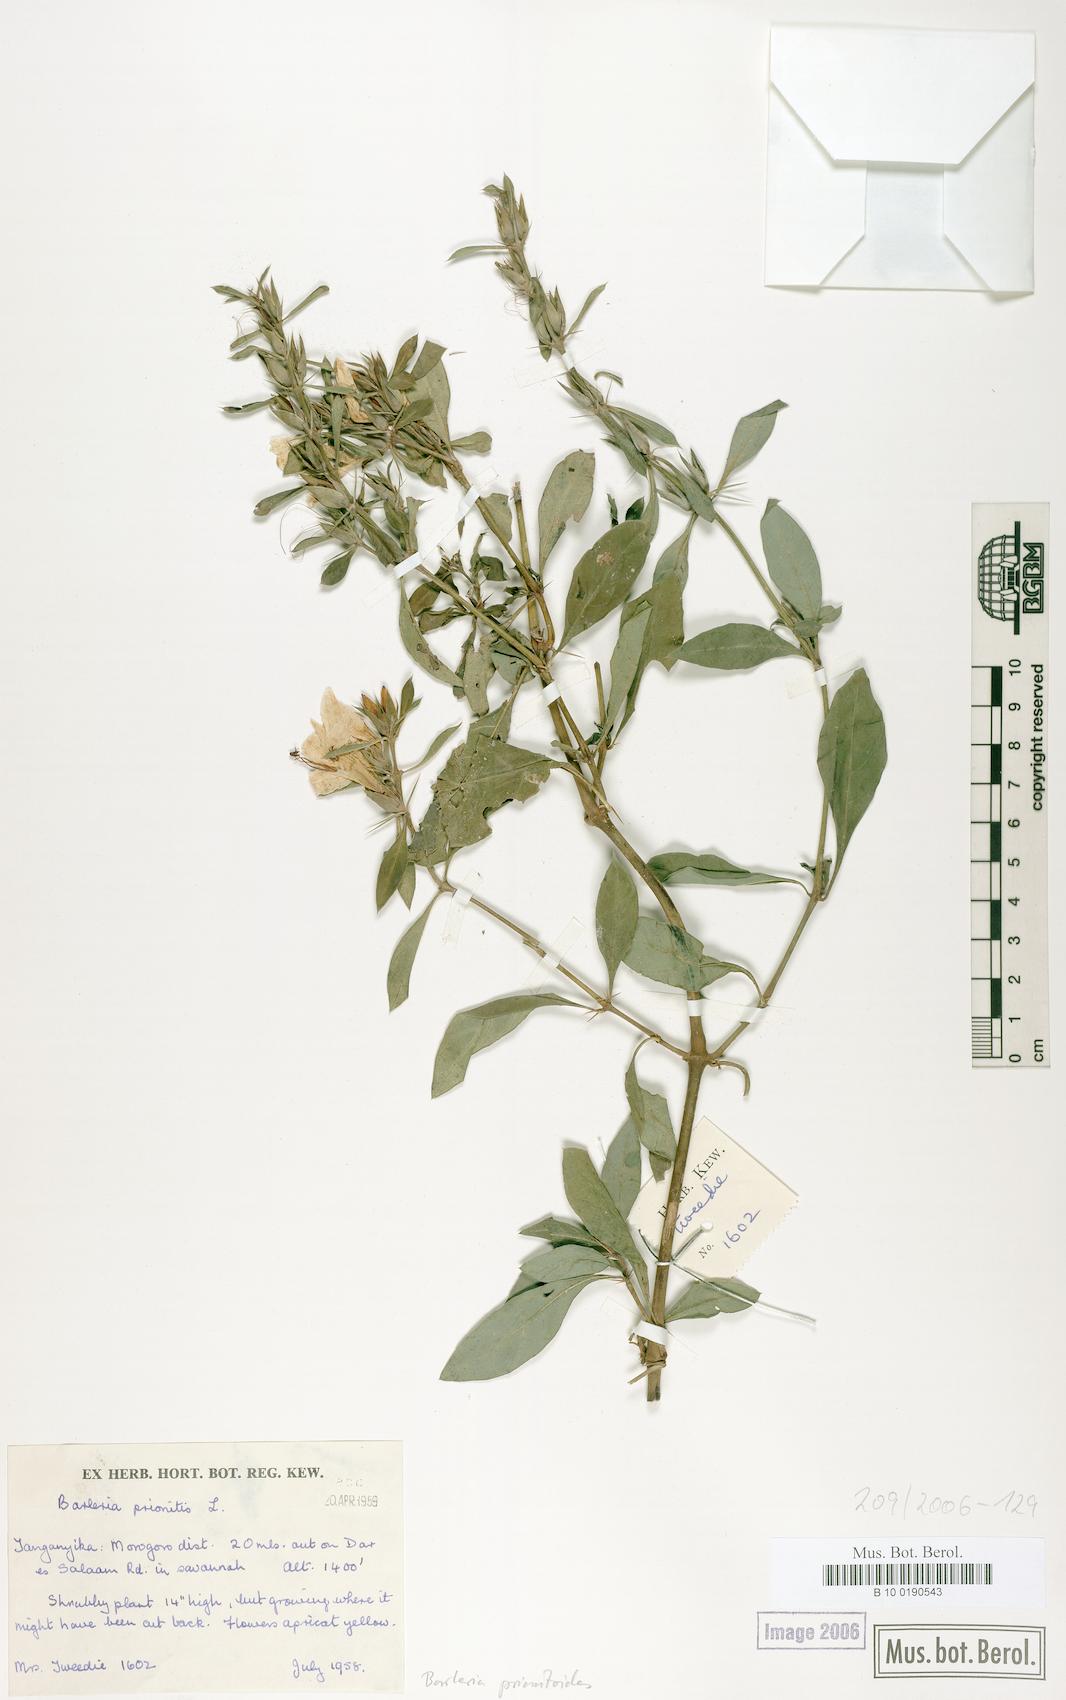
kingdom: Plantae
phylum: Tracheophyta
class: Magnoliopsida
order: Lamiales
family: Acanthaceae
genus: Barleria
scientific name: Barleria prionitis
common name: Barleria
